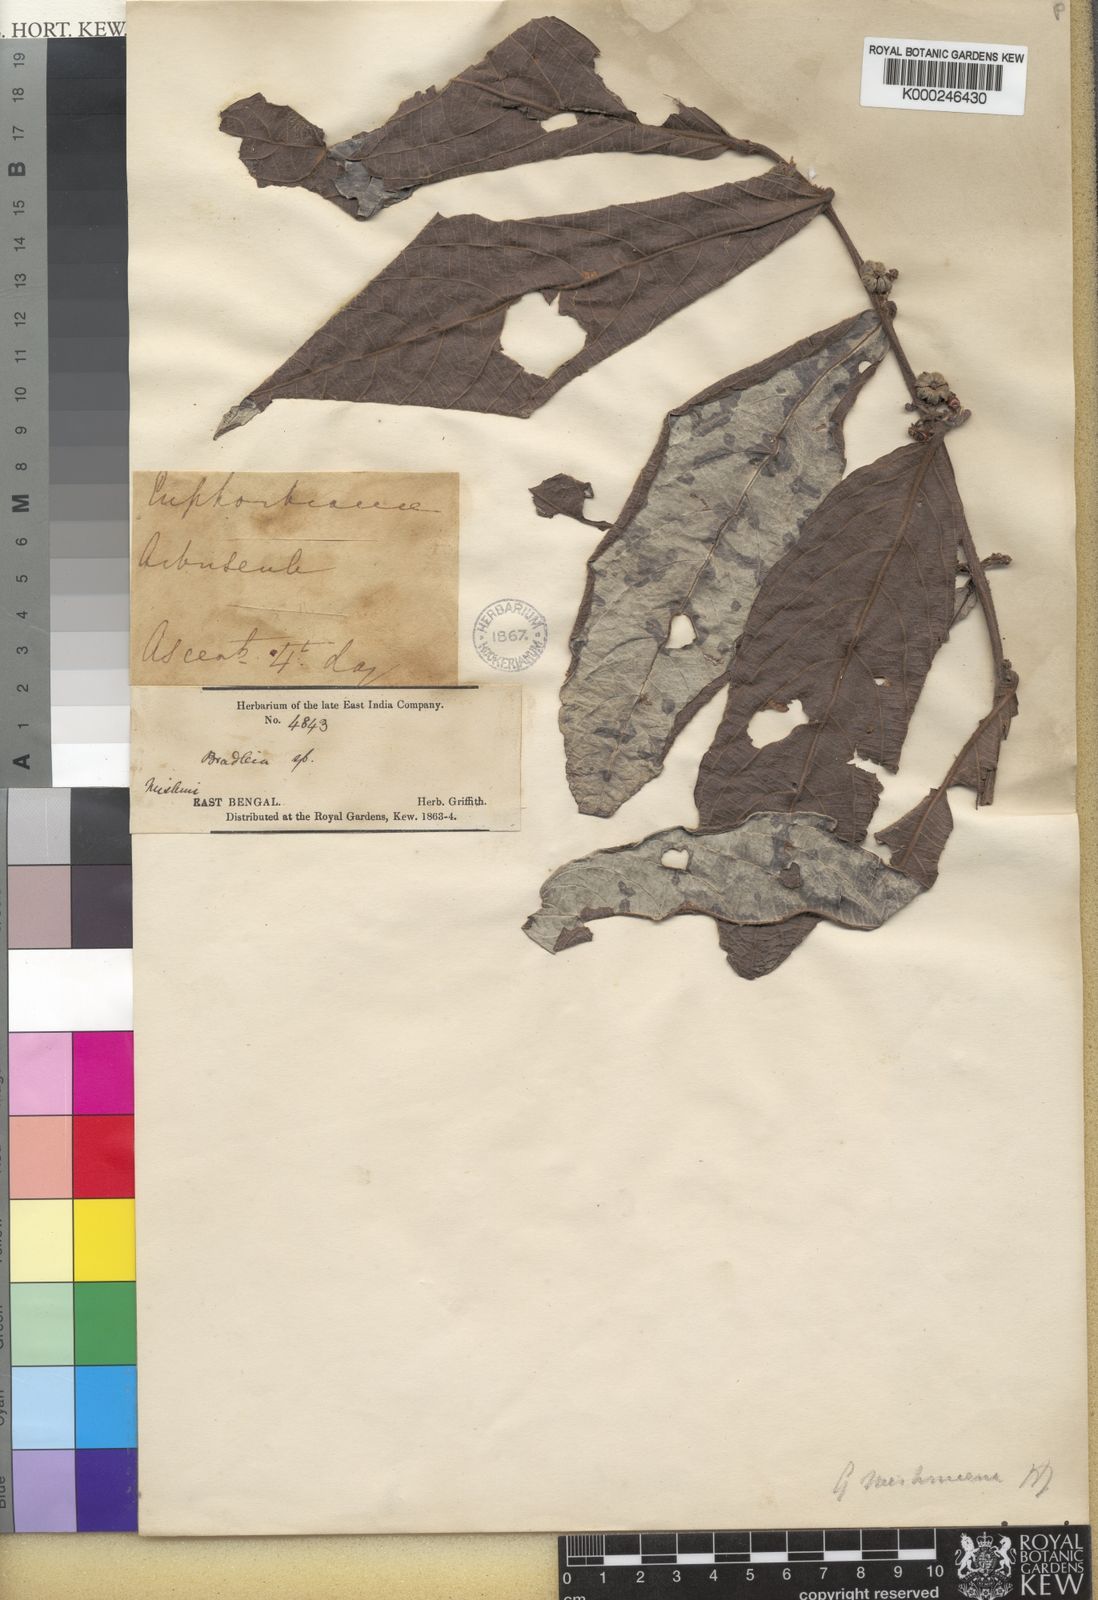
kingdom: Plantae
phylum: Tracheophyta
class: Magnoliopsida
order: Malpighiales
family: Phyllanthaceae
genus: Glochidion
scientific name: Glochidion zeylanicum
